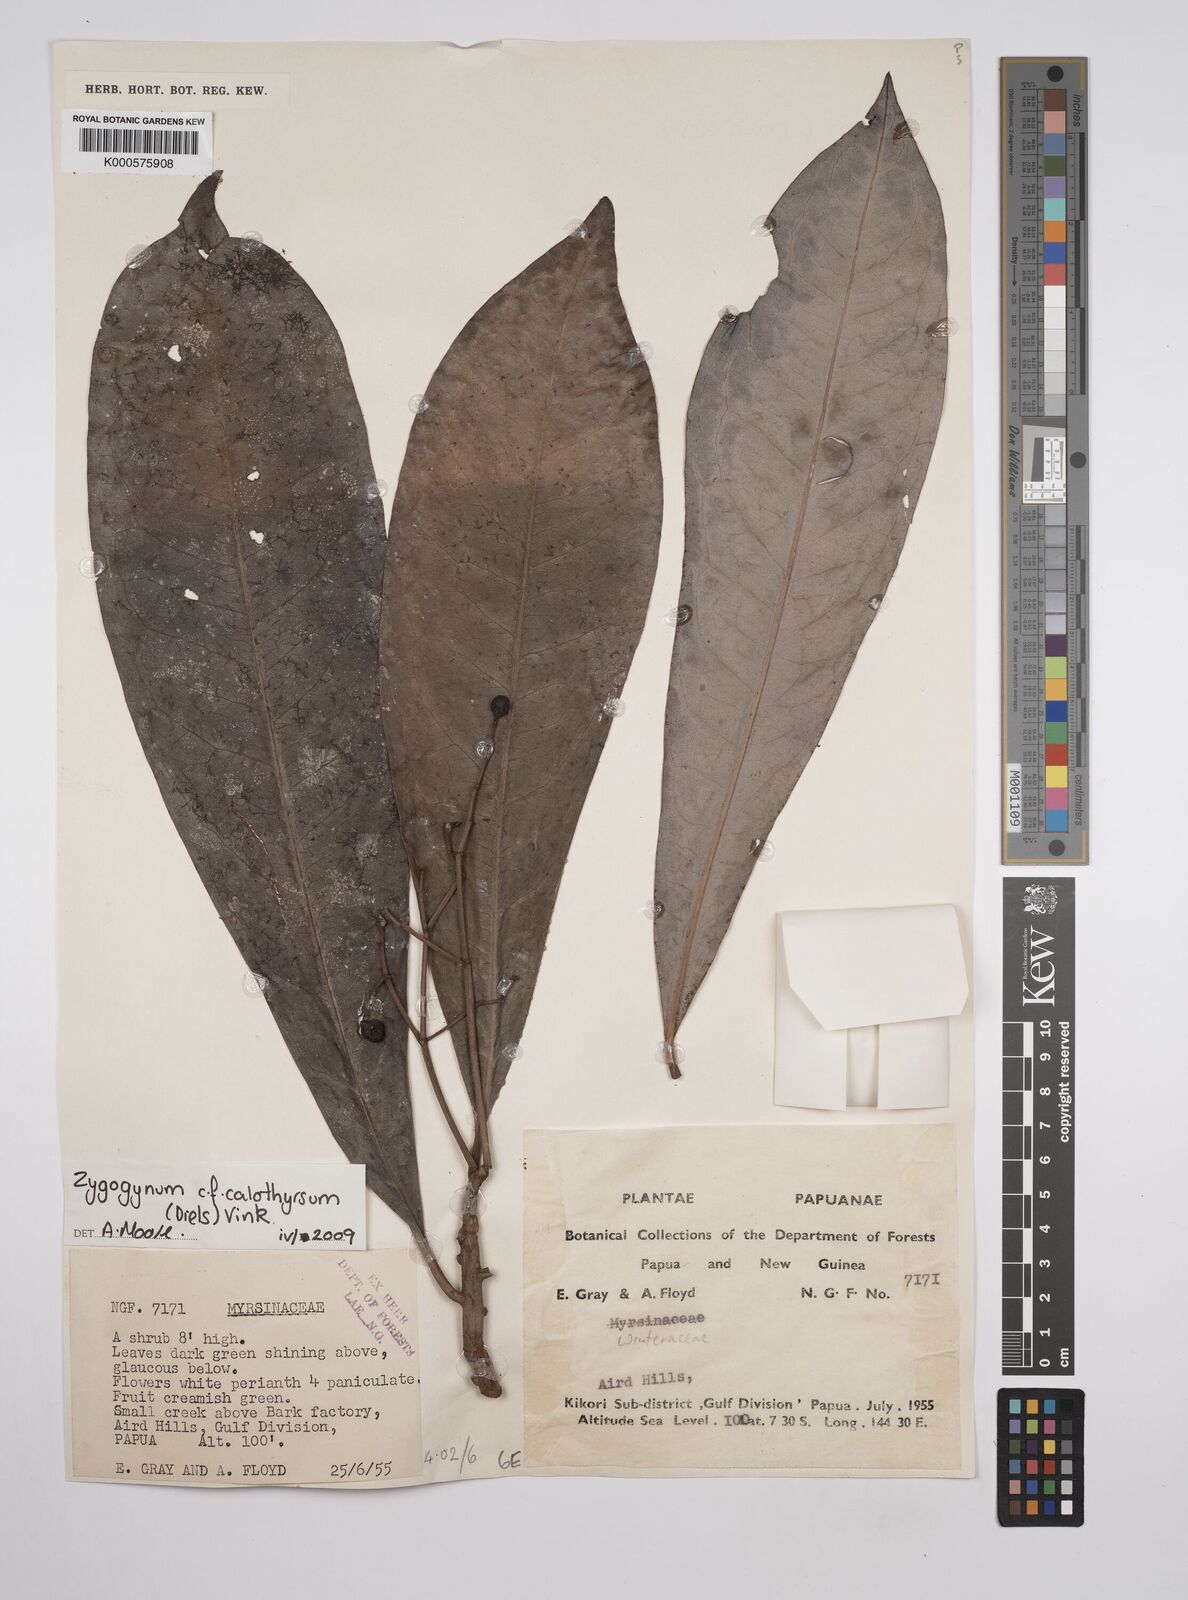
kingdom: Plantae
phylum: Tracheophyta
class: Magnoliopsida
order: Canellales
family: Winteraceae
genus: Zygogynum
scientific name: Zygogynum
